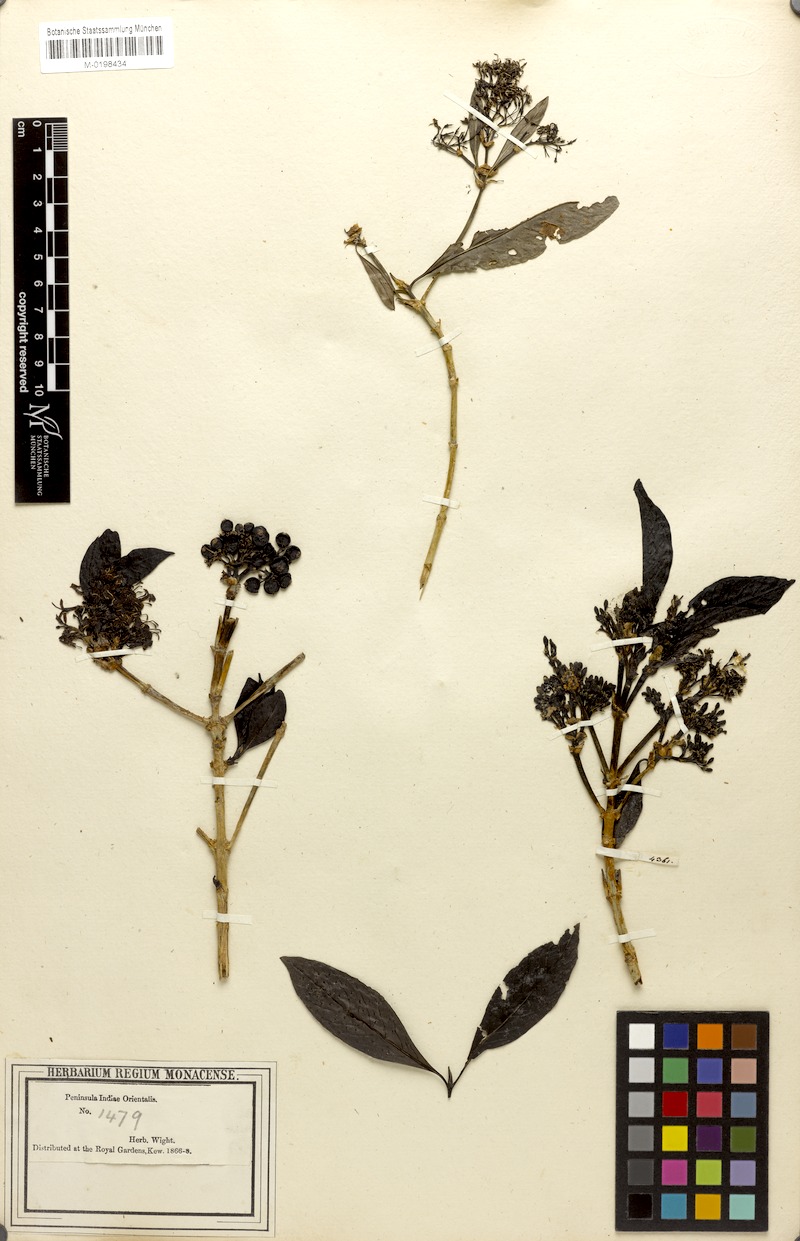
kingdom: Plantae
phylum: Tracheophyta
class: Magnoliopsida
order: Gentianales
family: Rubiaceae
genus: Pavetta
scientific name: Pavetta breviflora
